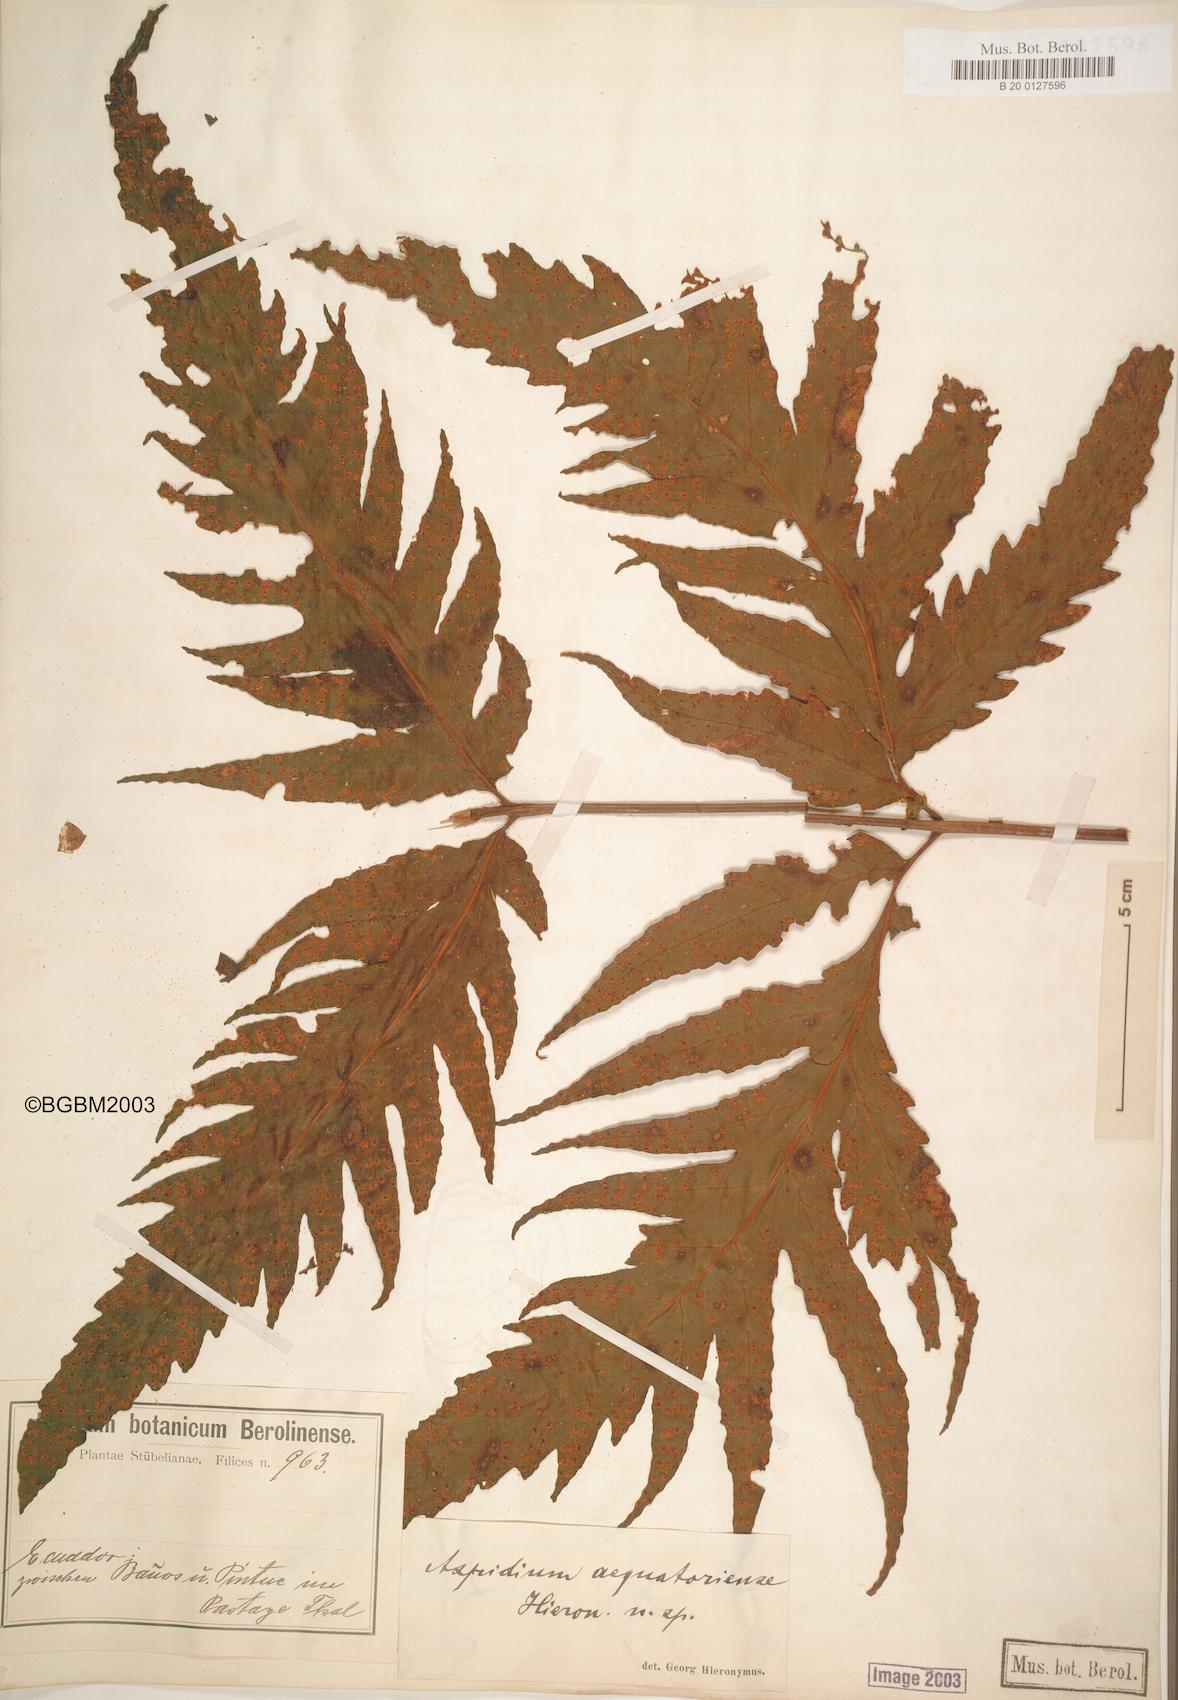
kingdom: Plantae
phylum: Tracheophyta
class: Polypodiopsida
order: Polypodiales
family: Tectariaceae
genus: Tectaria
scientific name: Tectaria aequatoriensis
